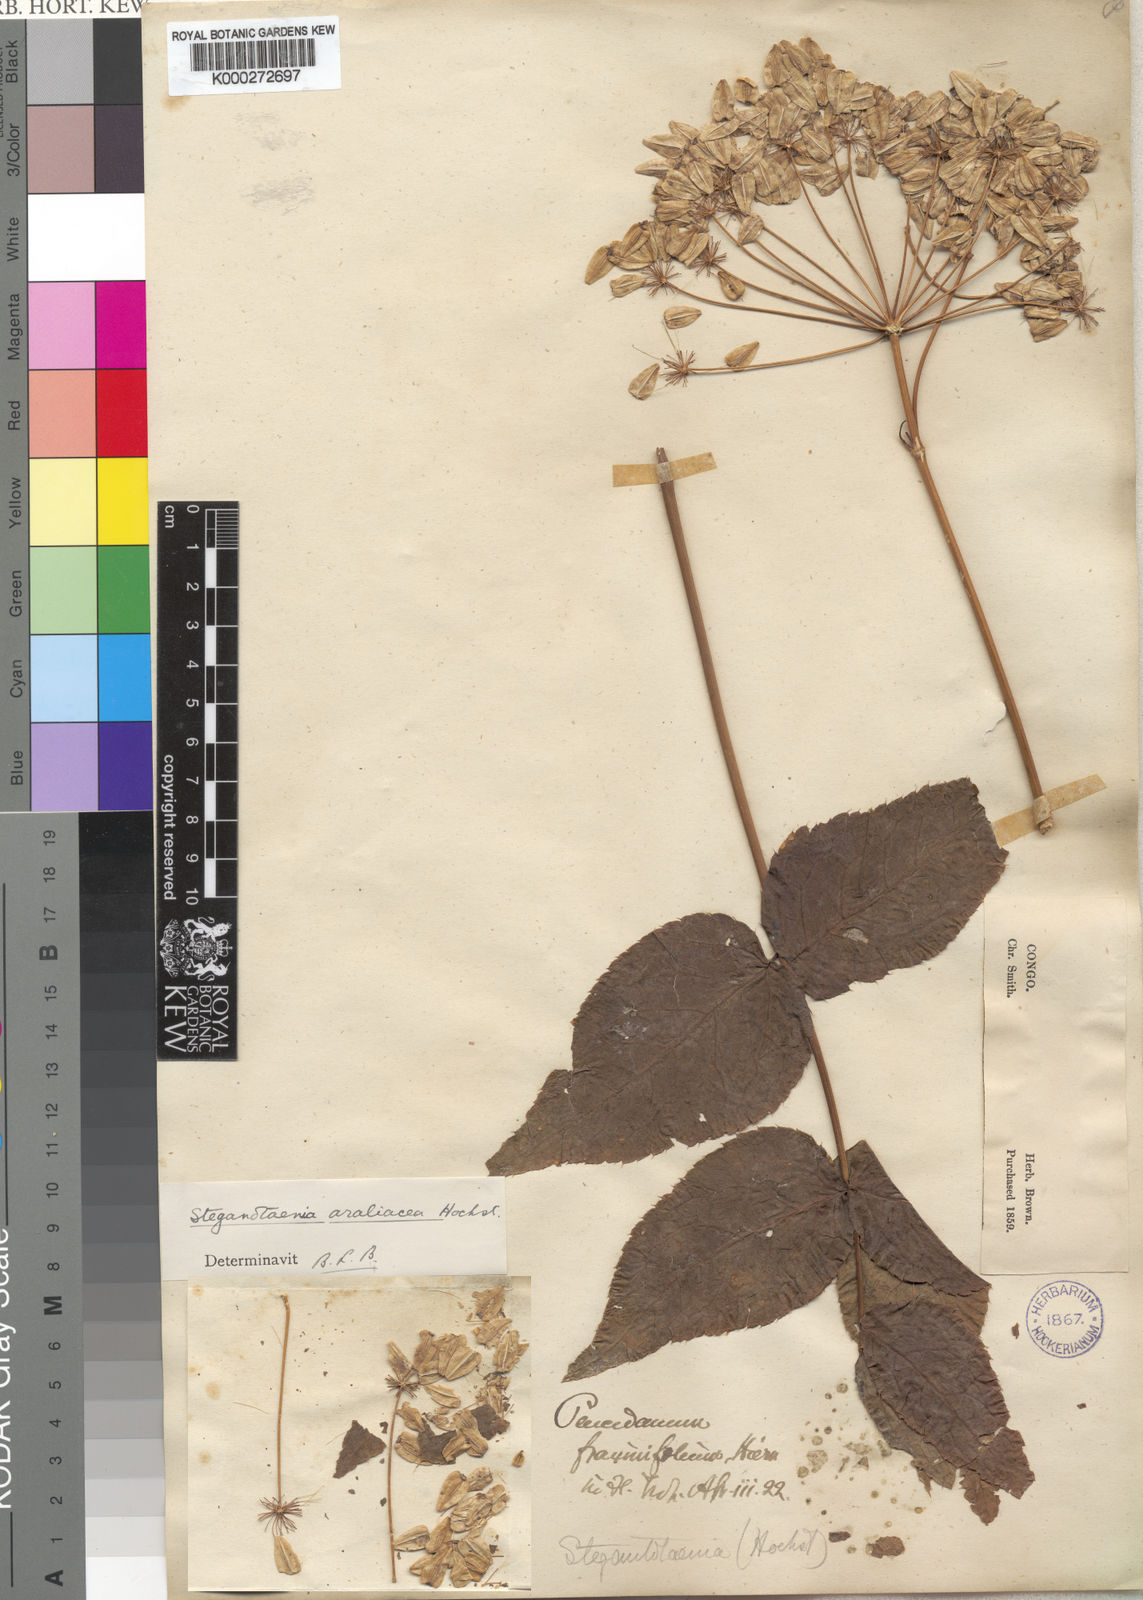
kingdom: Plantae
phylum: Tracheophyta
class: Magnoliopsida
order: Apiales
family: Apiaceae
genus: Steganotaenia
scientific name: Steganotaenia araliacea
